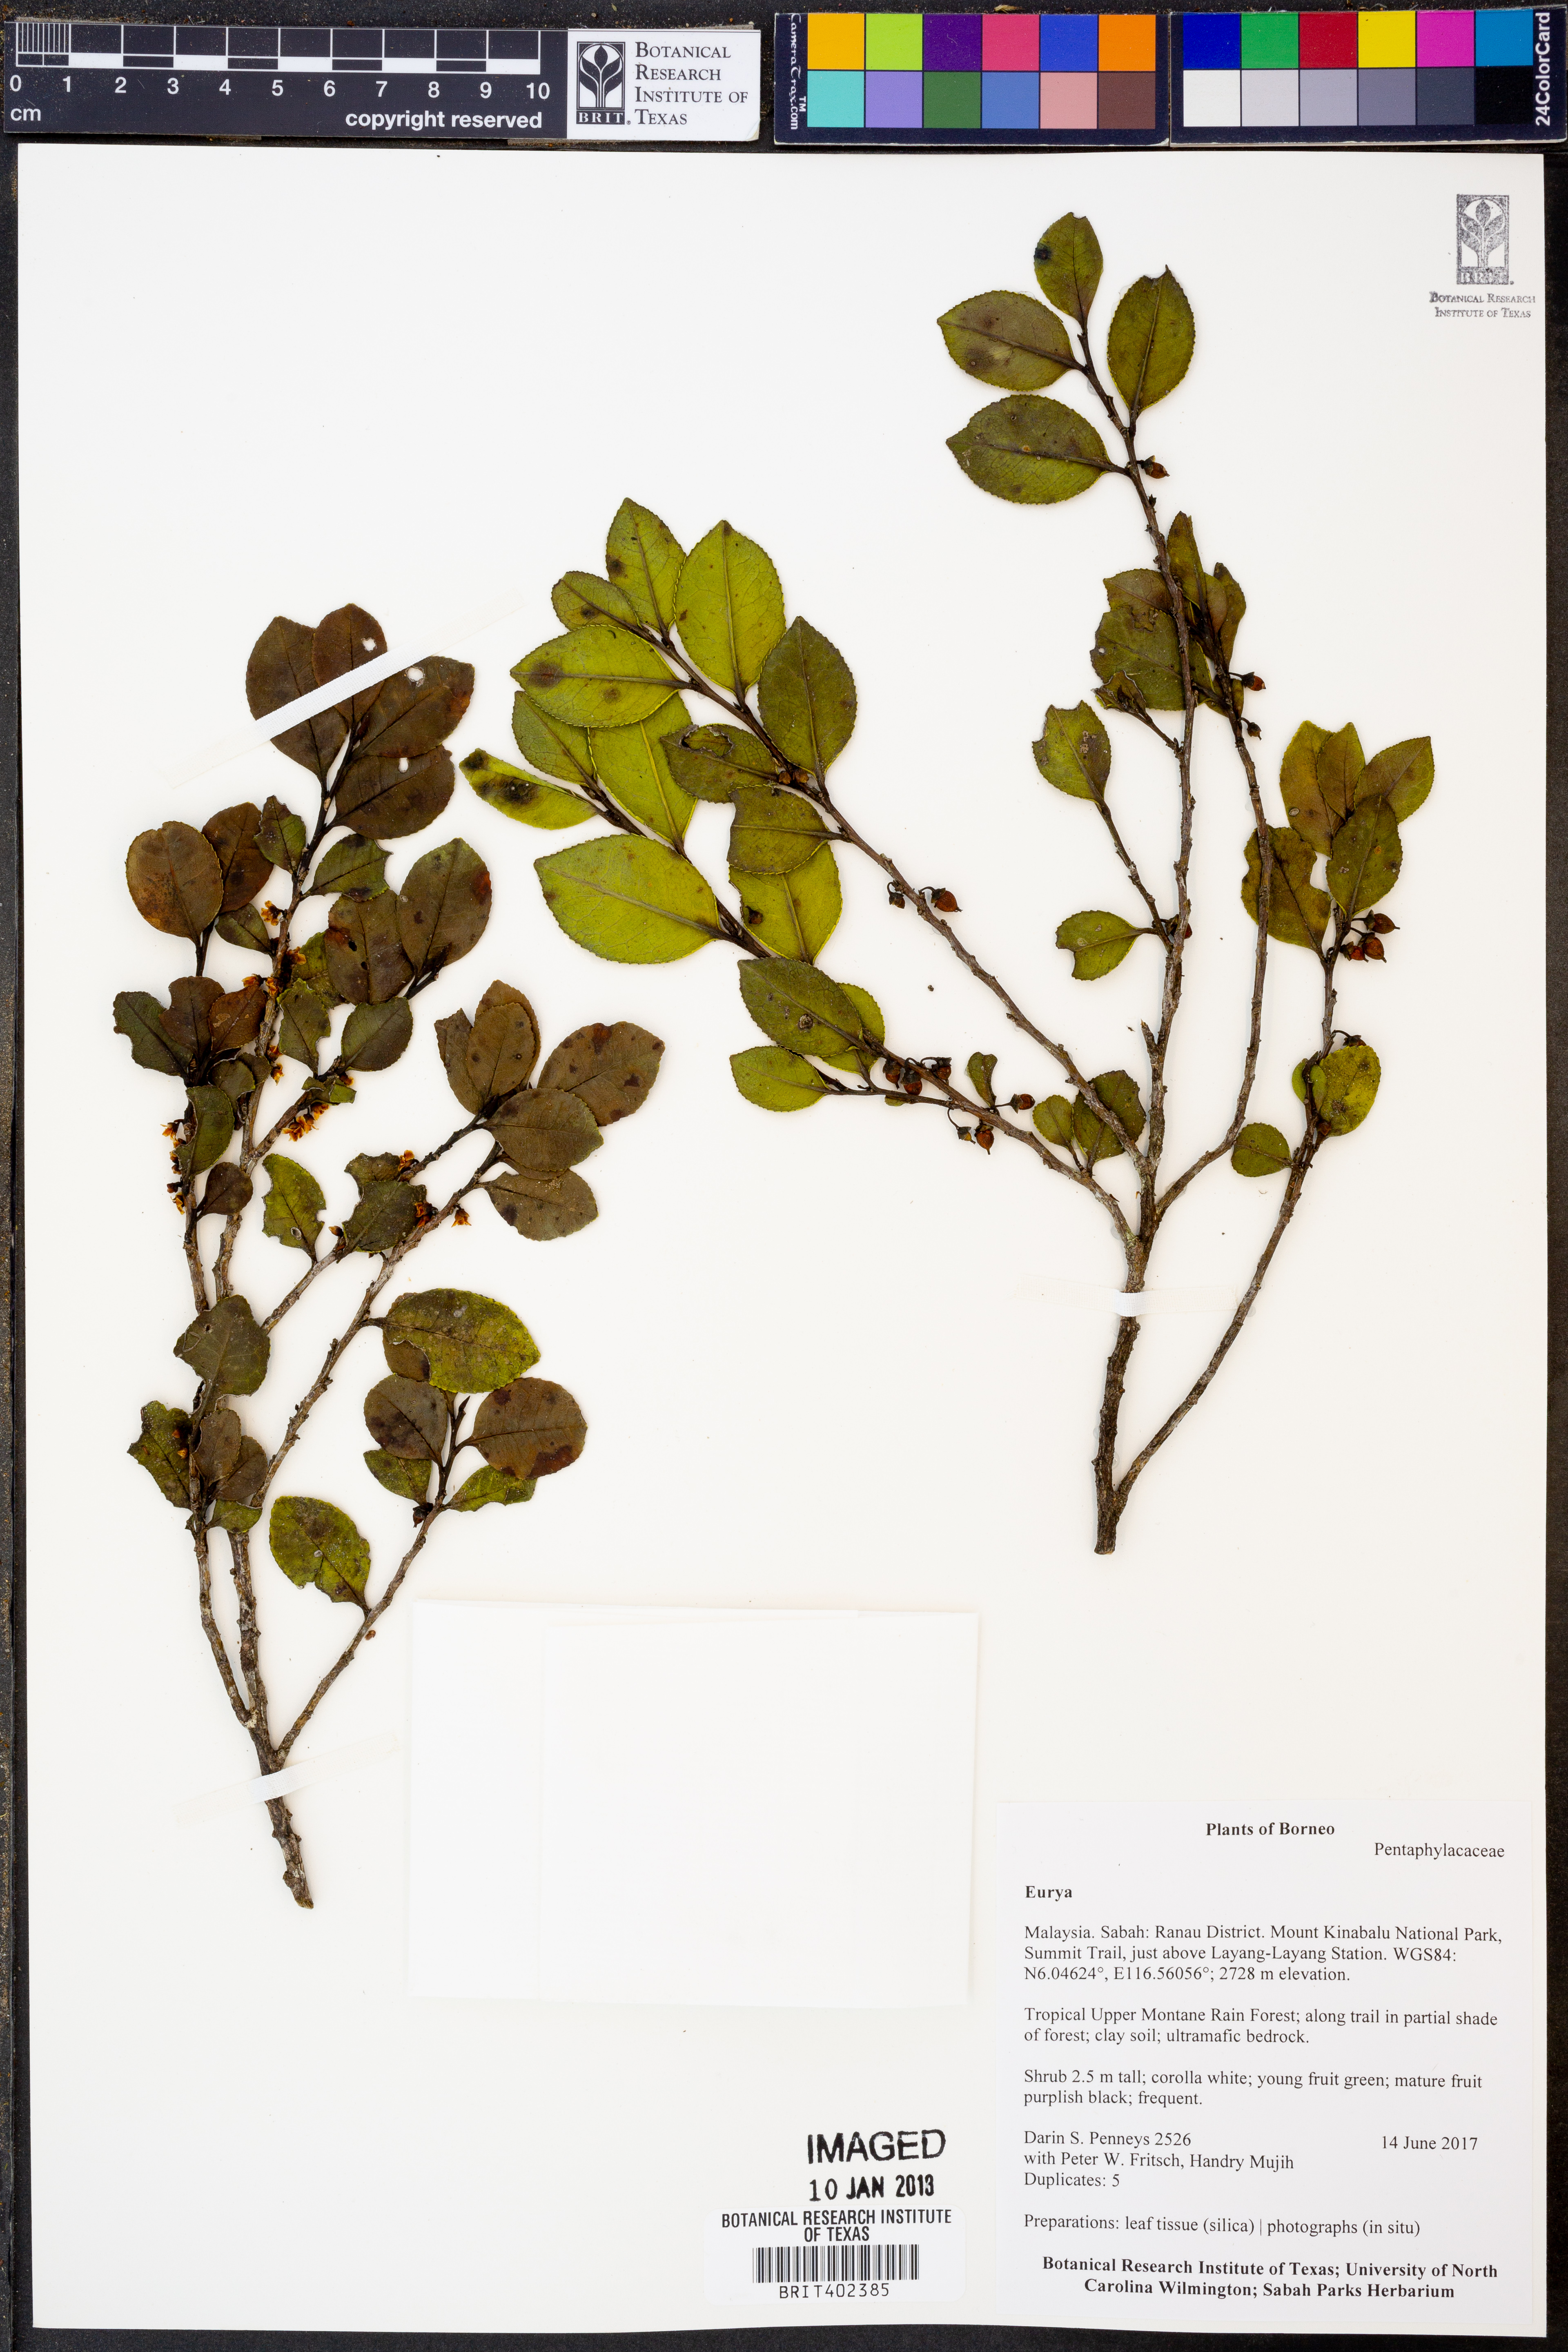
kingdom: Plantae
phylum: Tracheophyta
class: Magnoliopsida
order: Ericales
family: Pentaphylacaceae
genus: Eurya
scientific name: Eurya
